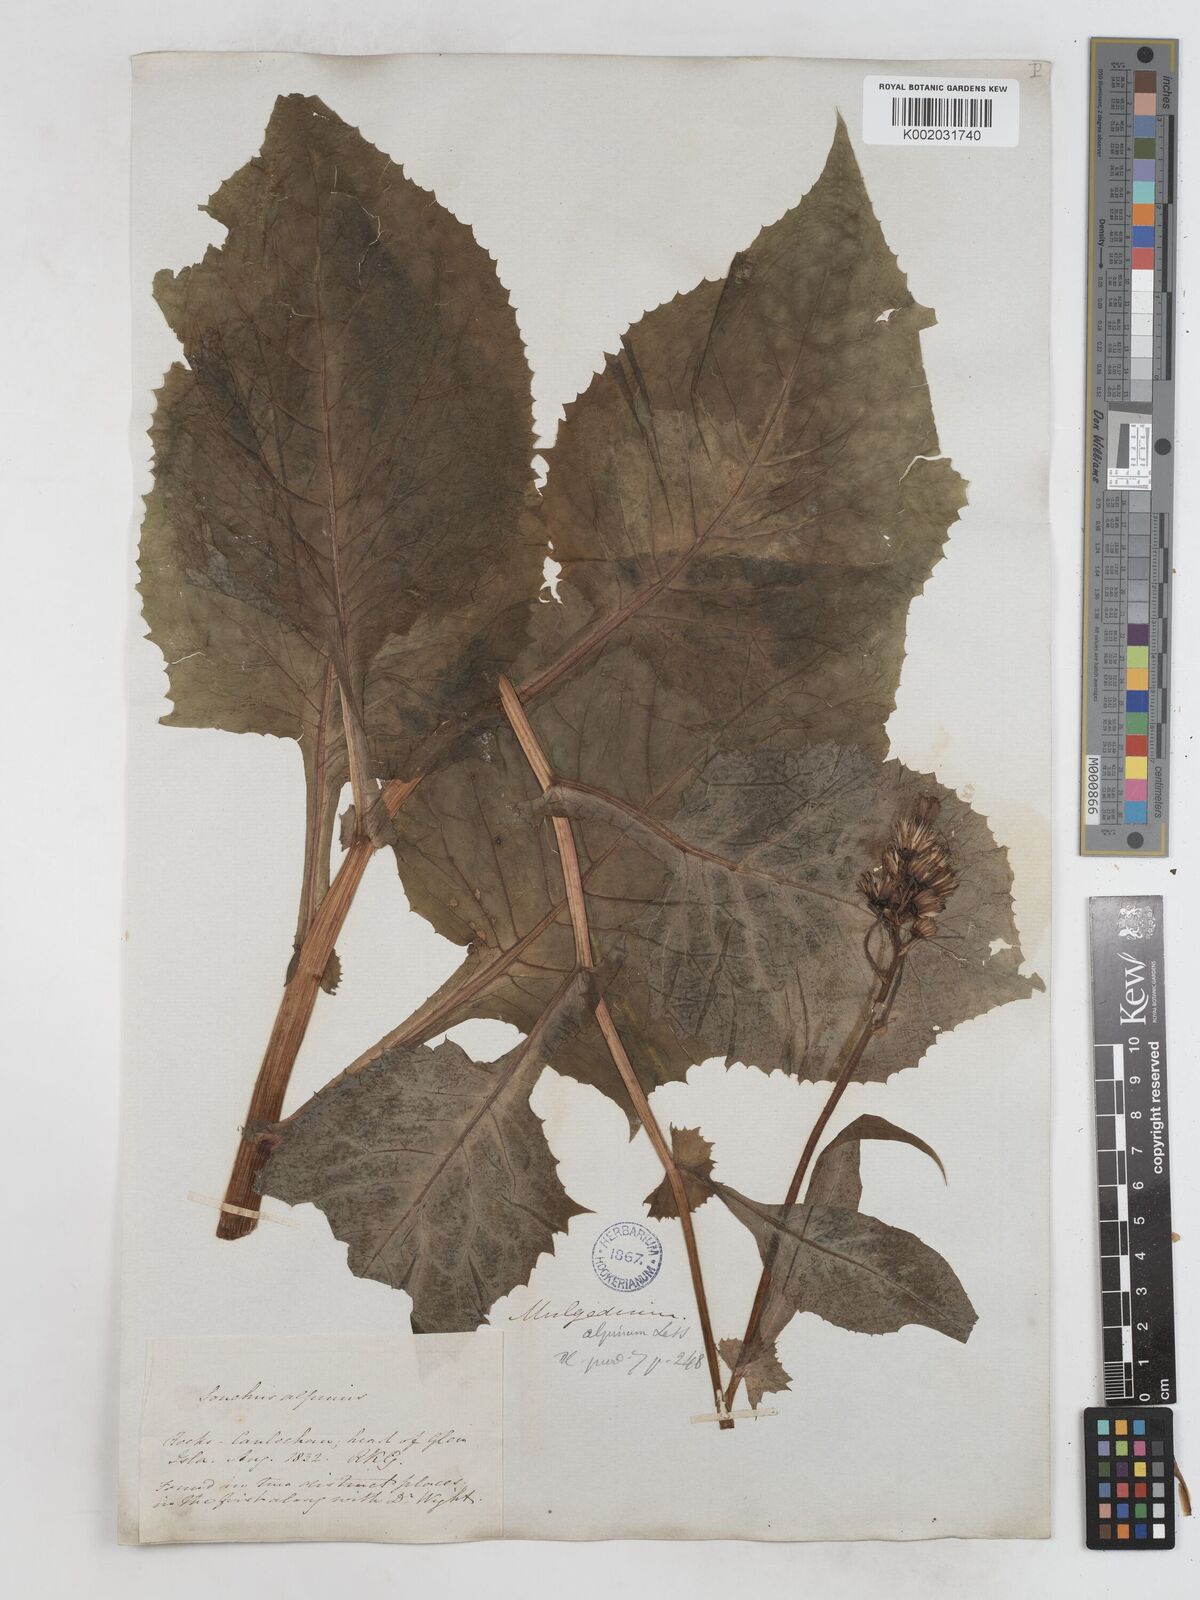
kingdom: Plantae
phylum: Tracheophyta
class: Magnoliopsida
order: Asterales
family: Asteraceae
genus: Cicerbita
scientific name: Cicerbita alpina
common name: Alpine blue-sow-thistle
